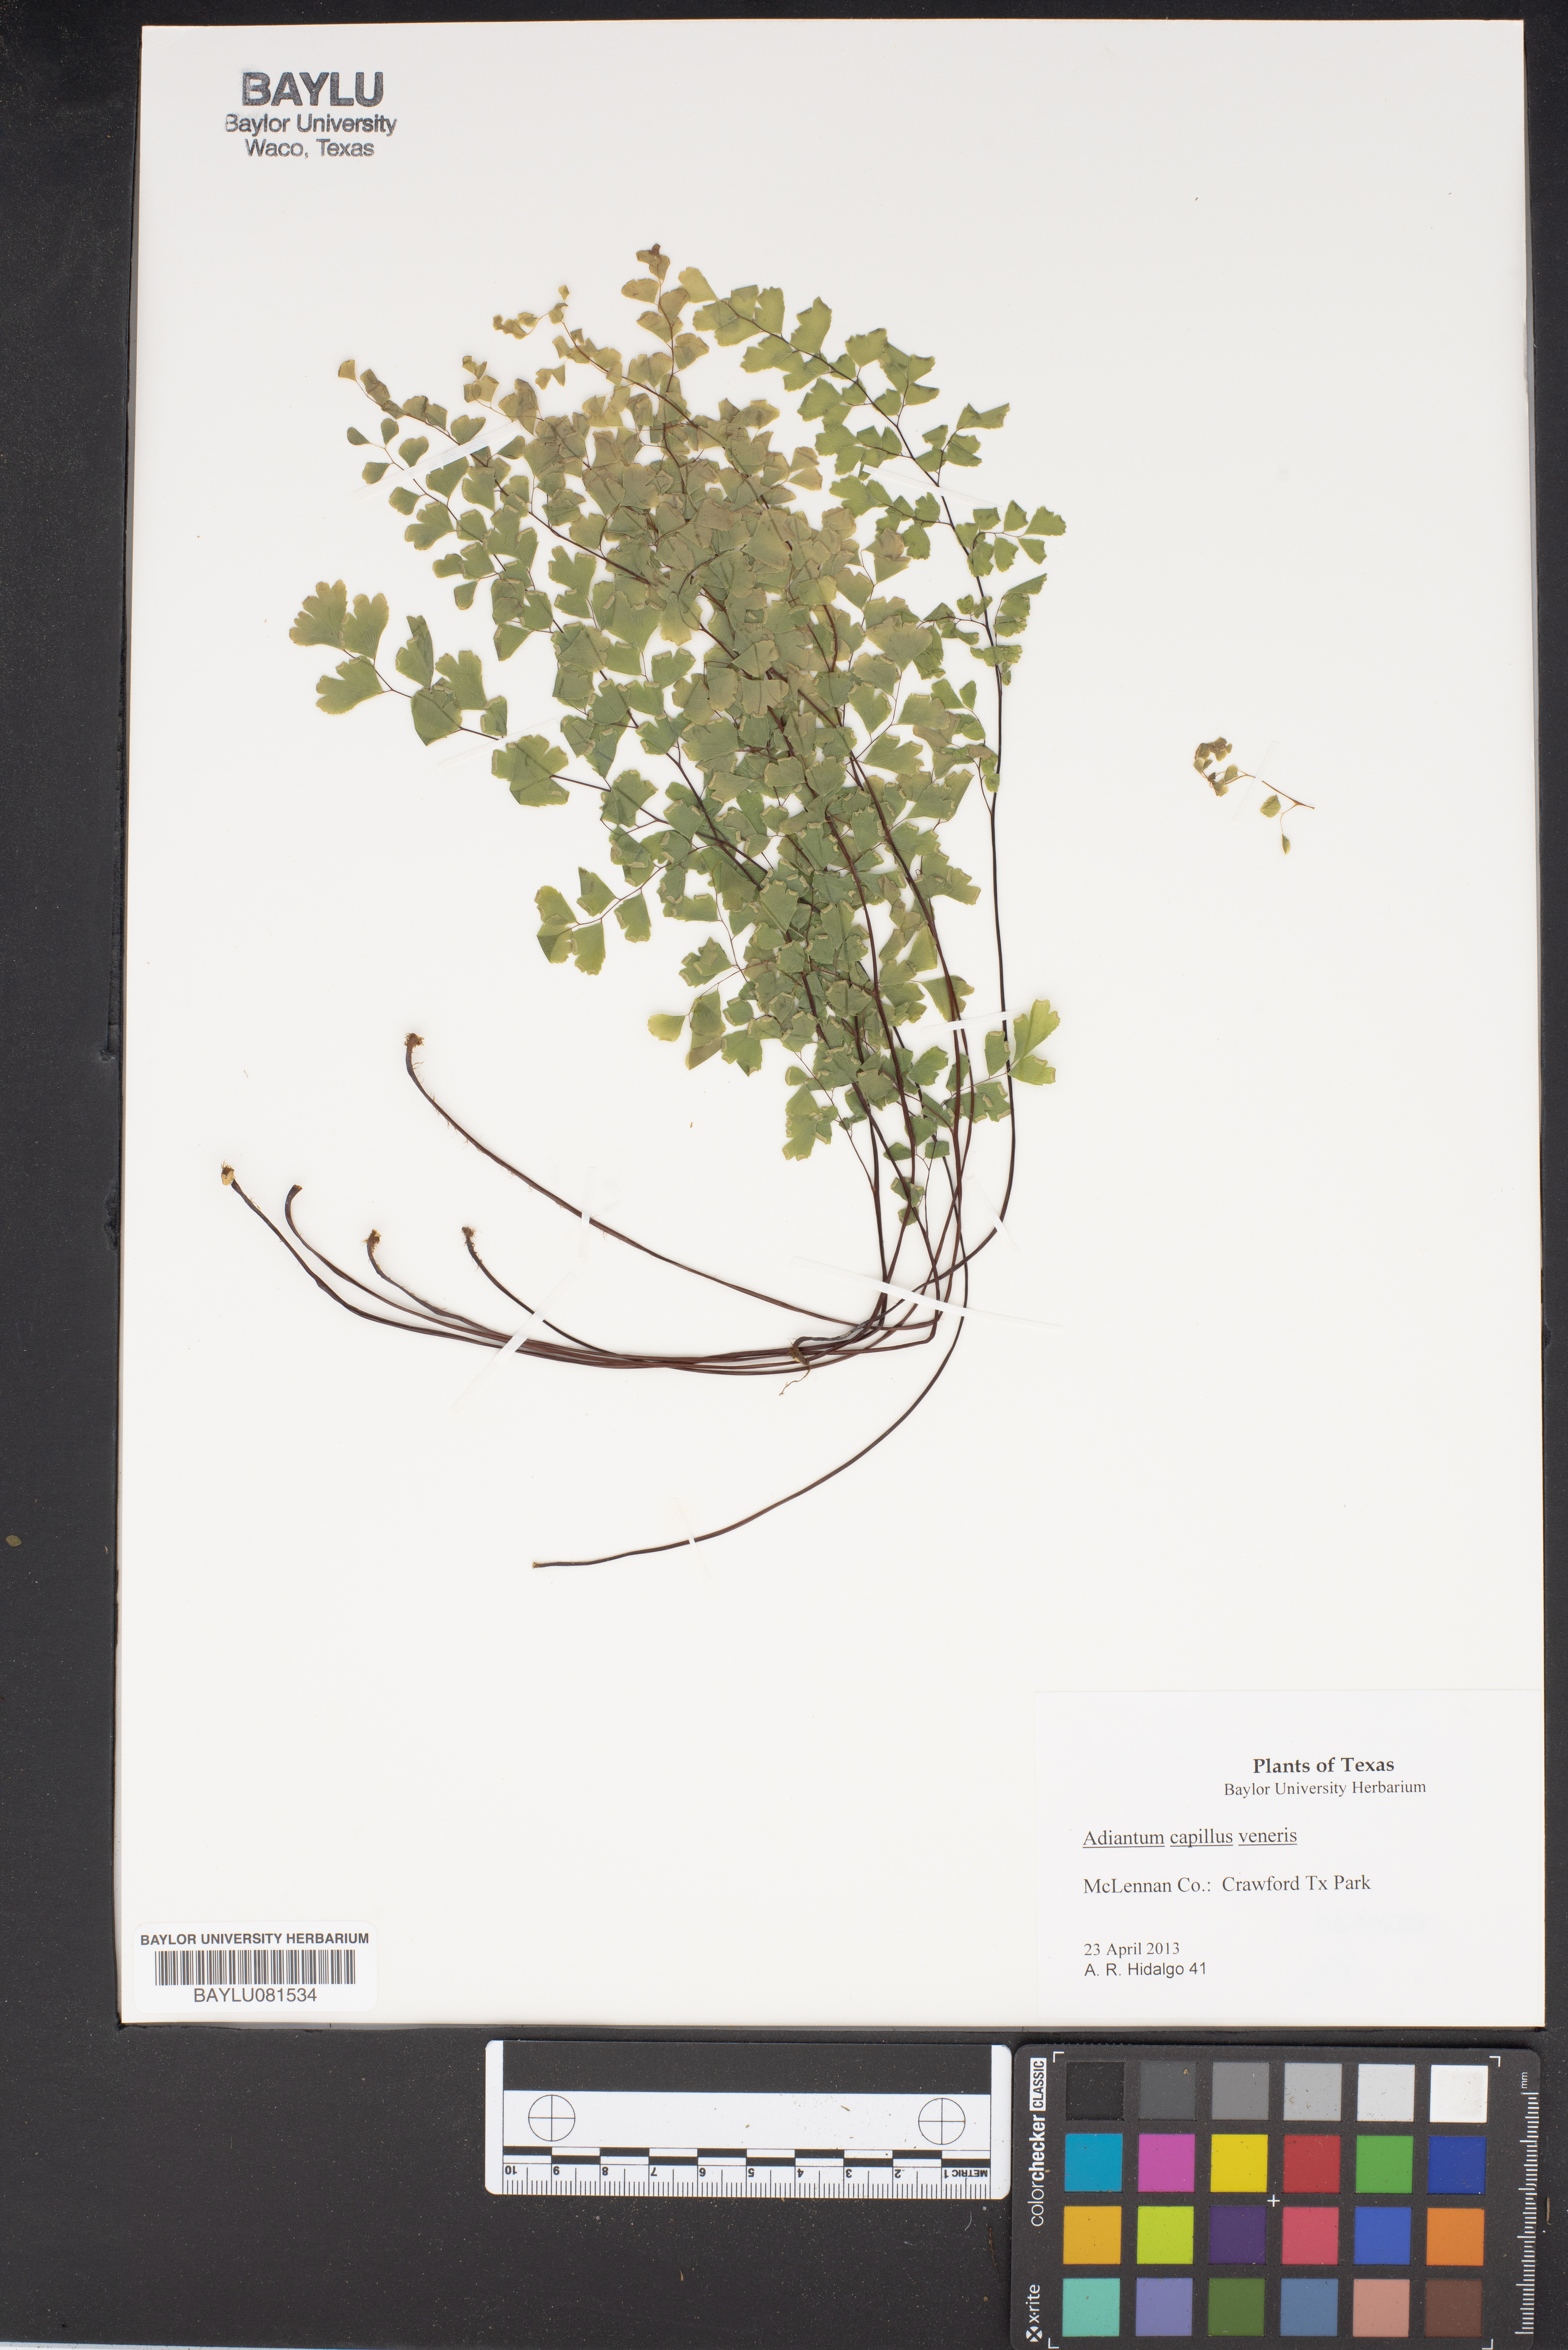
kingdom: Plantae
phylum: Tracheophyta
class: Polypodiopsida
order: Polypodiales
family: Pteridaceae
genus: Adiantum
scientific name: Adiantum capillus-veneris
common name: Maidenhair fern
